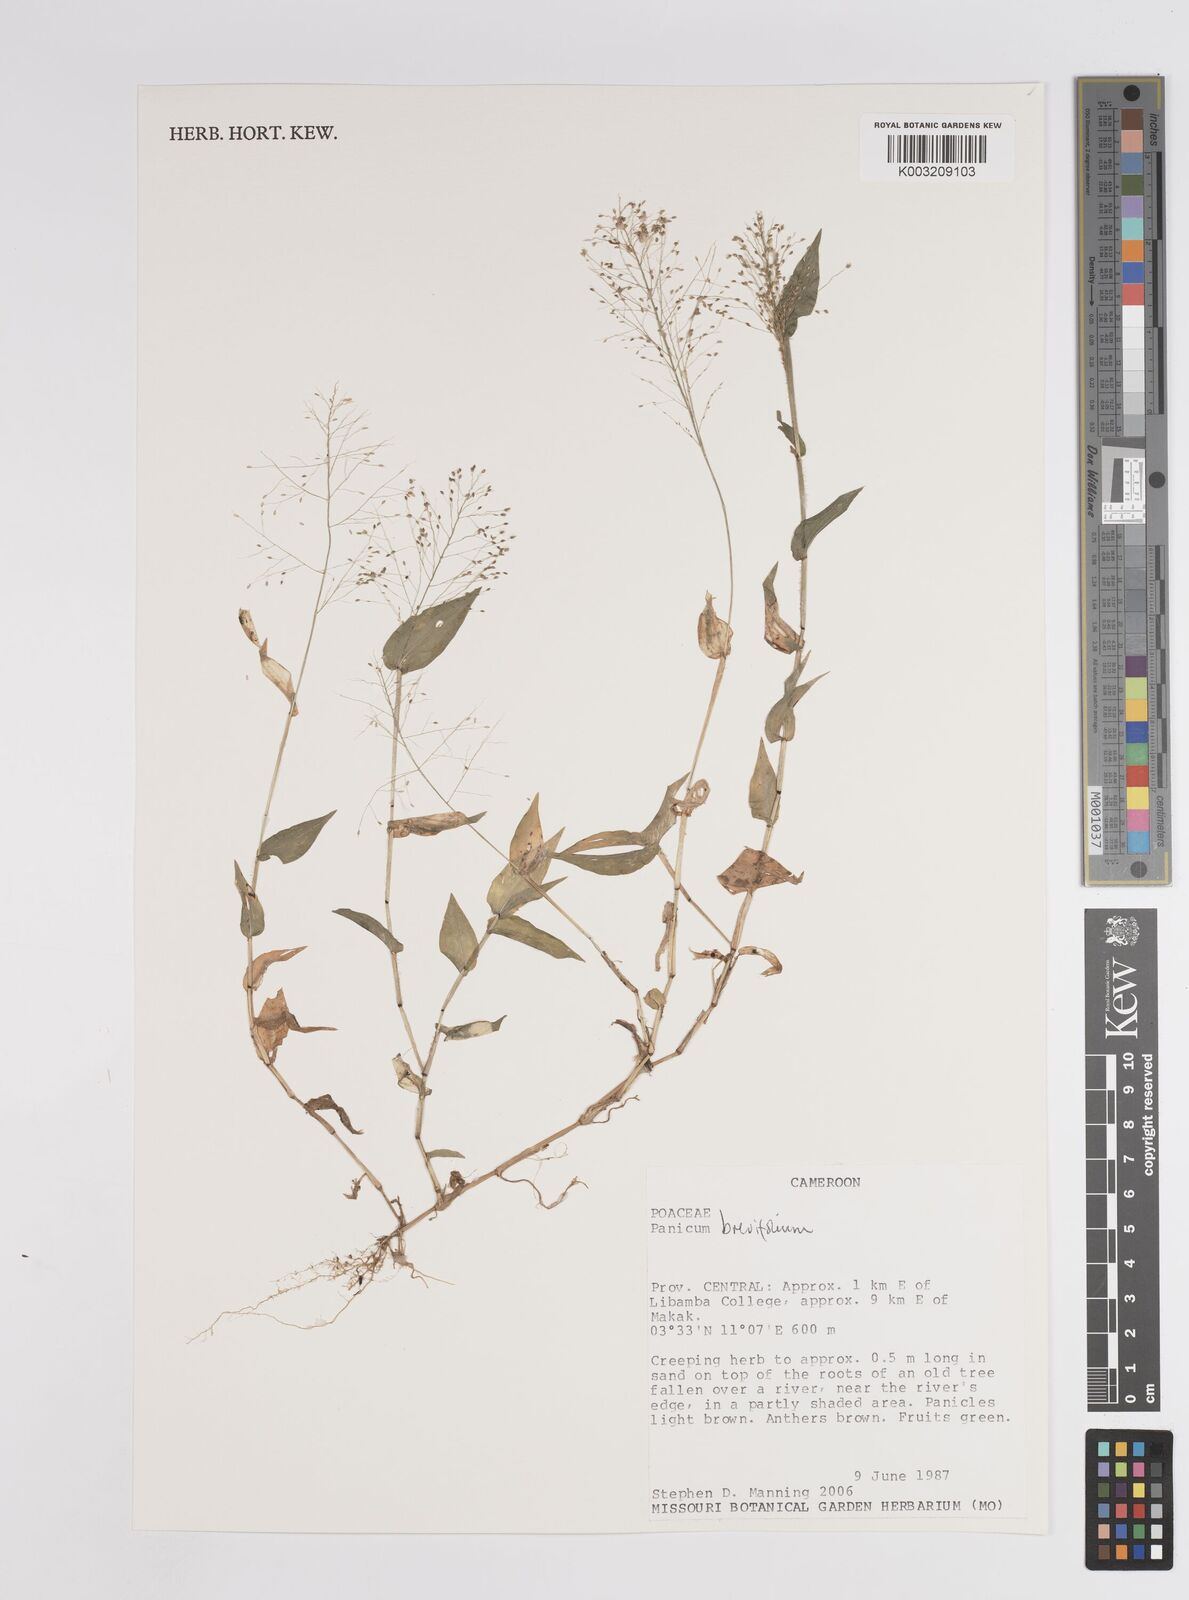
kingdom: Plantae
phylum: Tracheophyta
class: Liliopsida
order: Poales
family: Poaceae
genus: Panicum
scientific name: Panicum brevifolium
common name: Shortleaf panic grass
